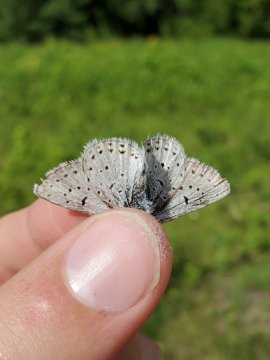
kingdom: Animalia
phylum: Arthropoda
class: Insecta
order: Lepidoptera
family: Lycaenidae
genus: Icaricia
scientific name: Icaricia saepiolus
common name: Greenish Blue
